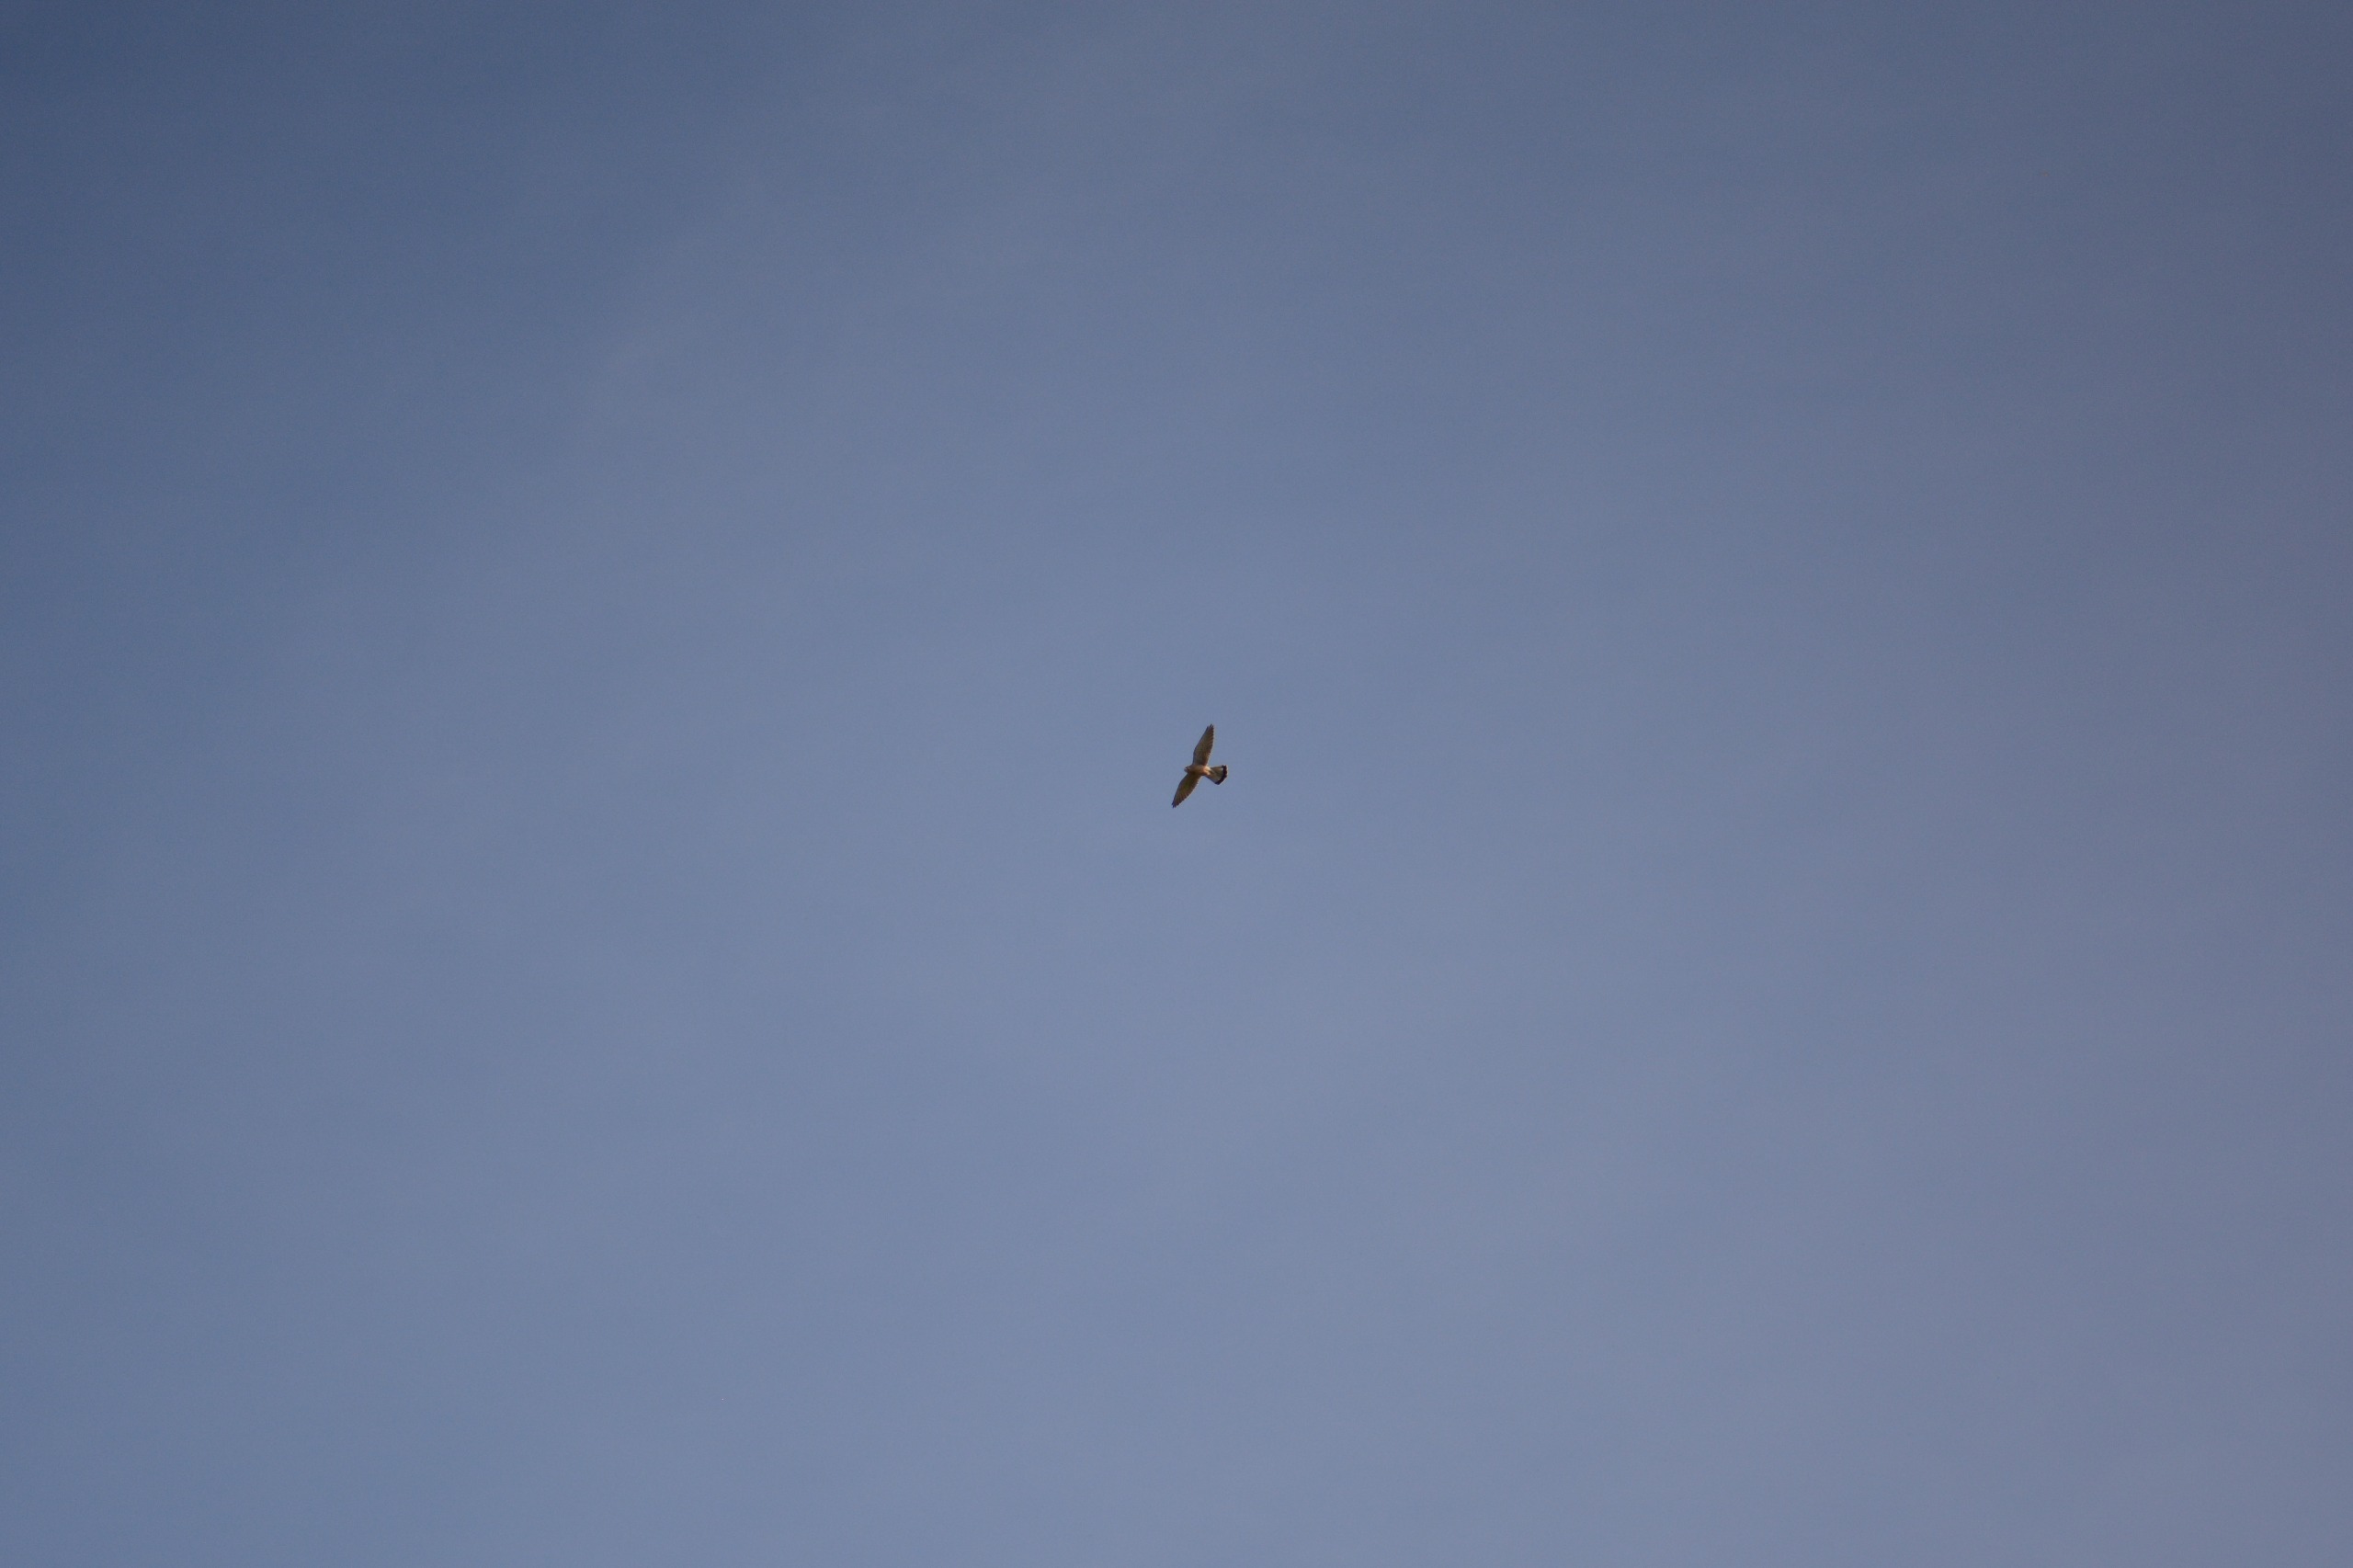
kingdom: Animalia
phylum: Chordata
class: Aves
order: Falconiformes
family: Falconidae
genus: Falco
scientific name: Falco tinnunculus
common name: Tårnfalk
